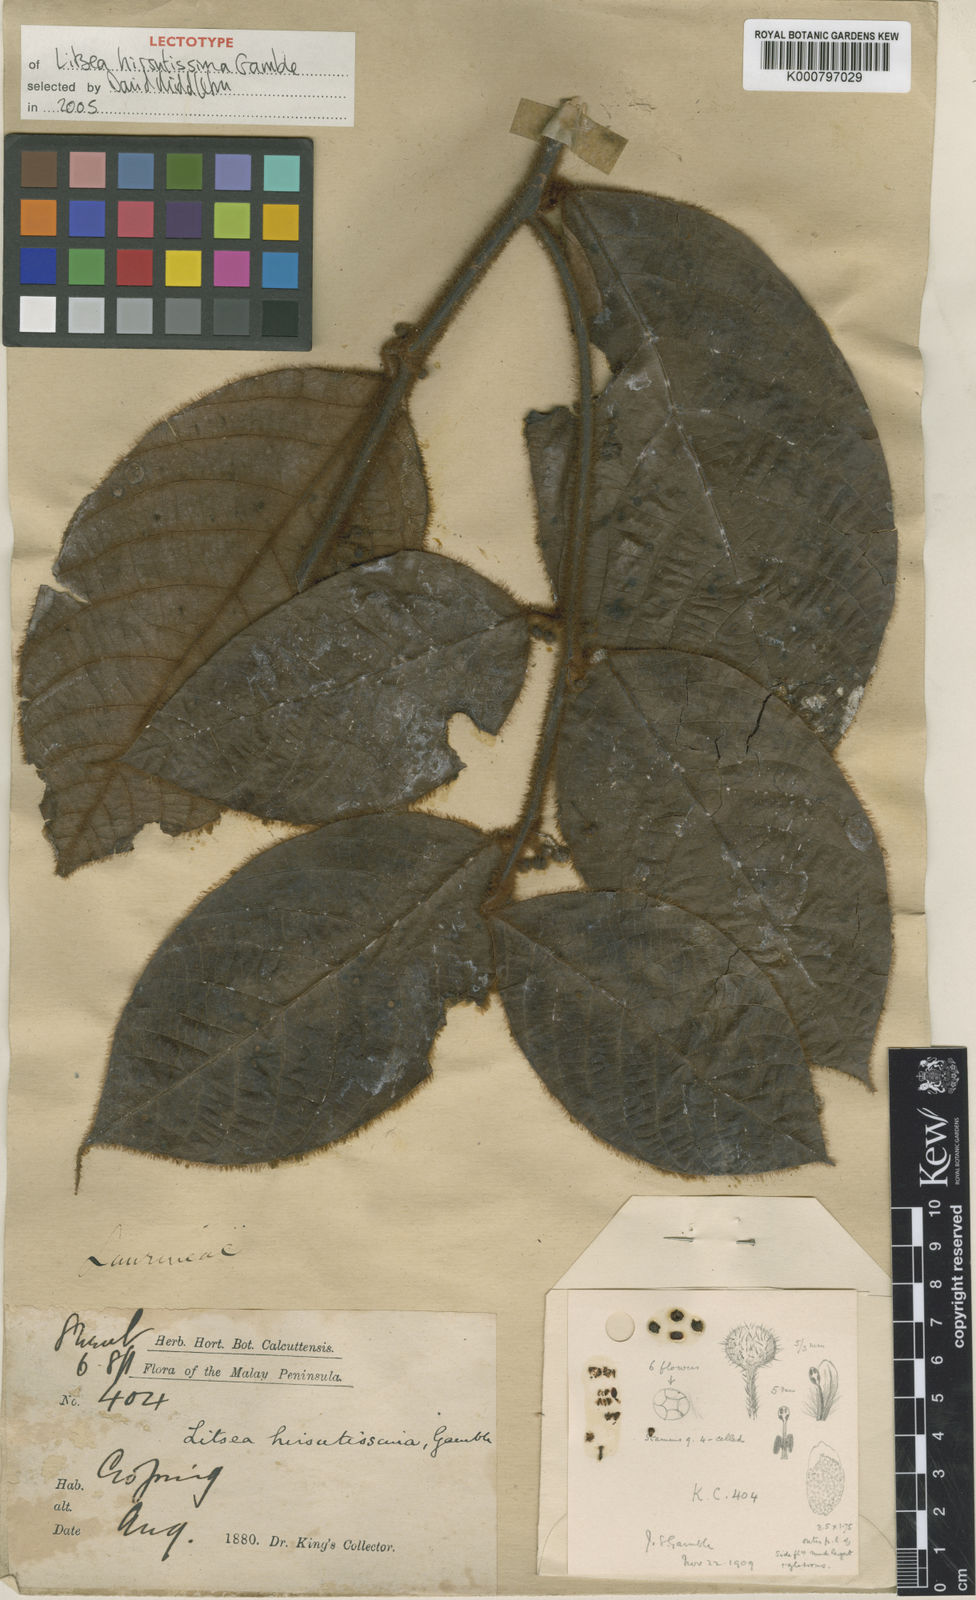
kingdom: Plantae
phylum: Tracheophyta
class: Magnoliopsida
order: Laurales
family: Lauraceae
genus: Litsea
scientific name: Litsea hirsutissima
